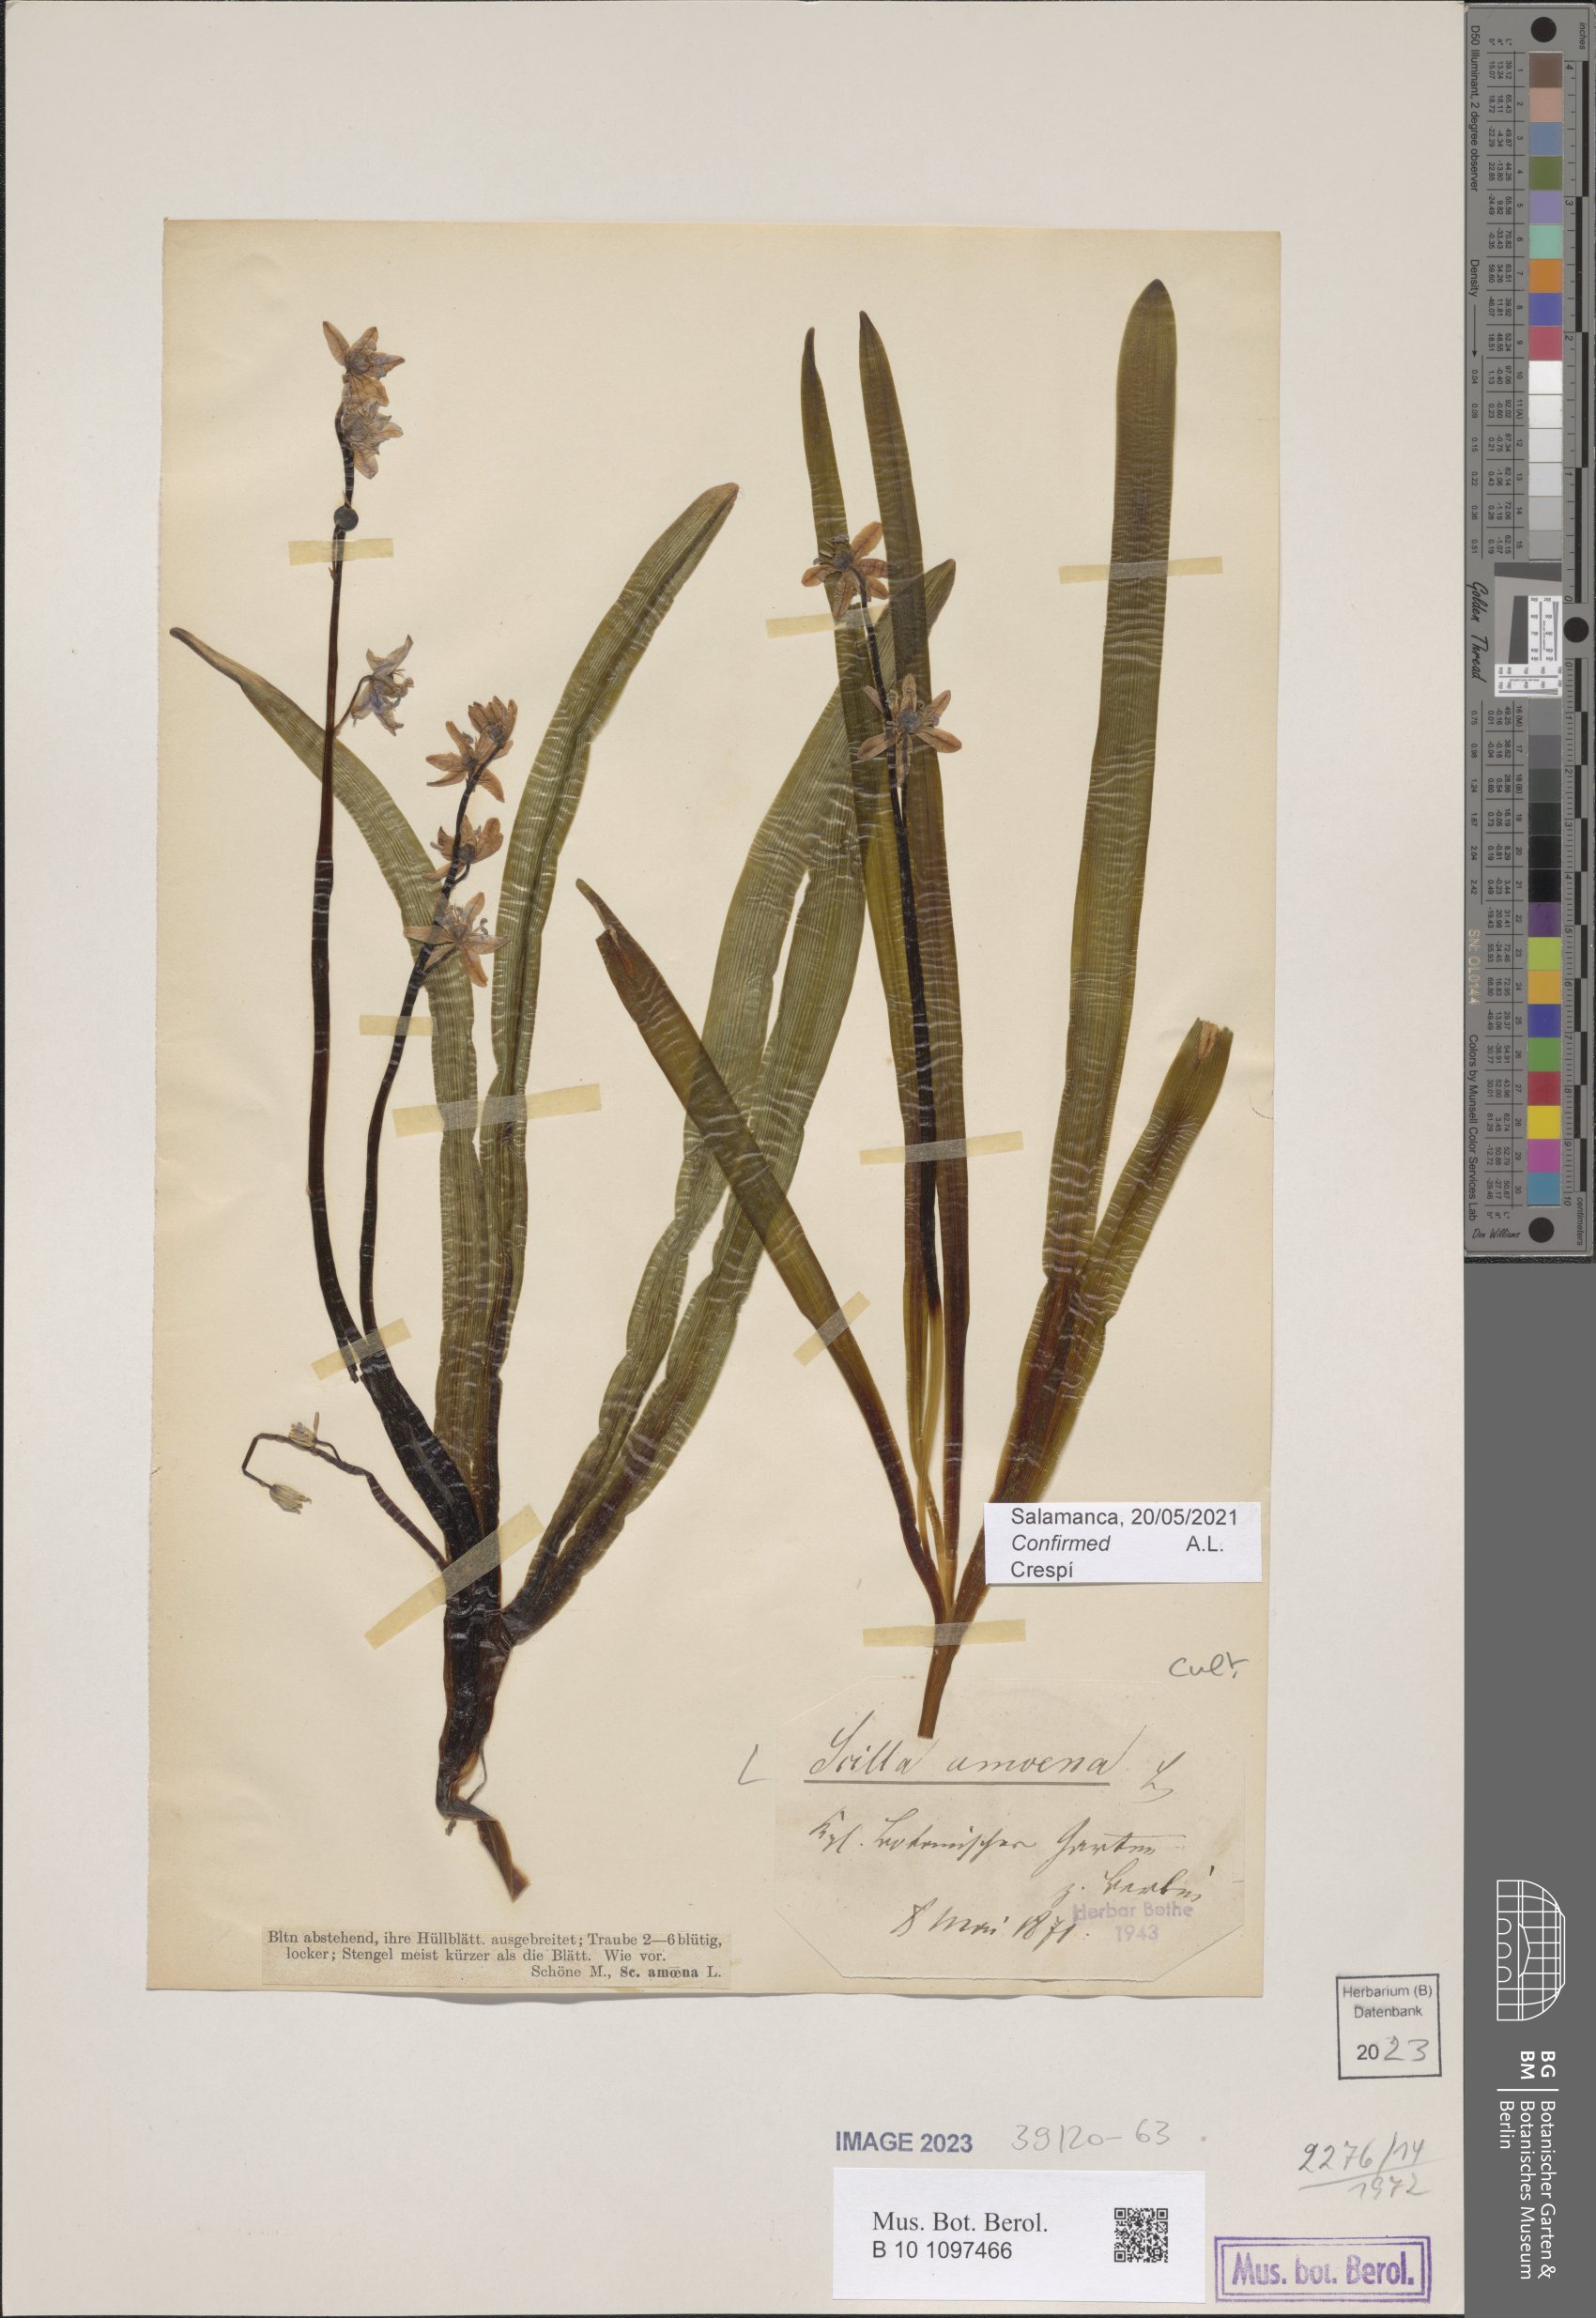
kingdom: Plantae
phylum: Tracheophyta
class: Liliopsida
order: Asparagales
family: Asparagaceae
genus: Scilla
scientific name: Scilla amoena
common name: Star-hyacinth
